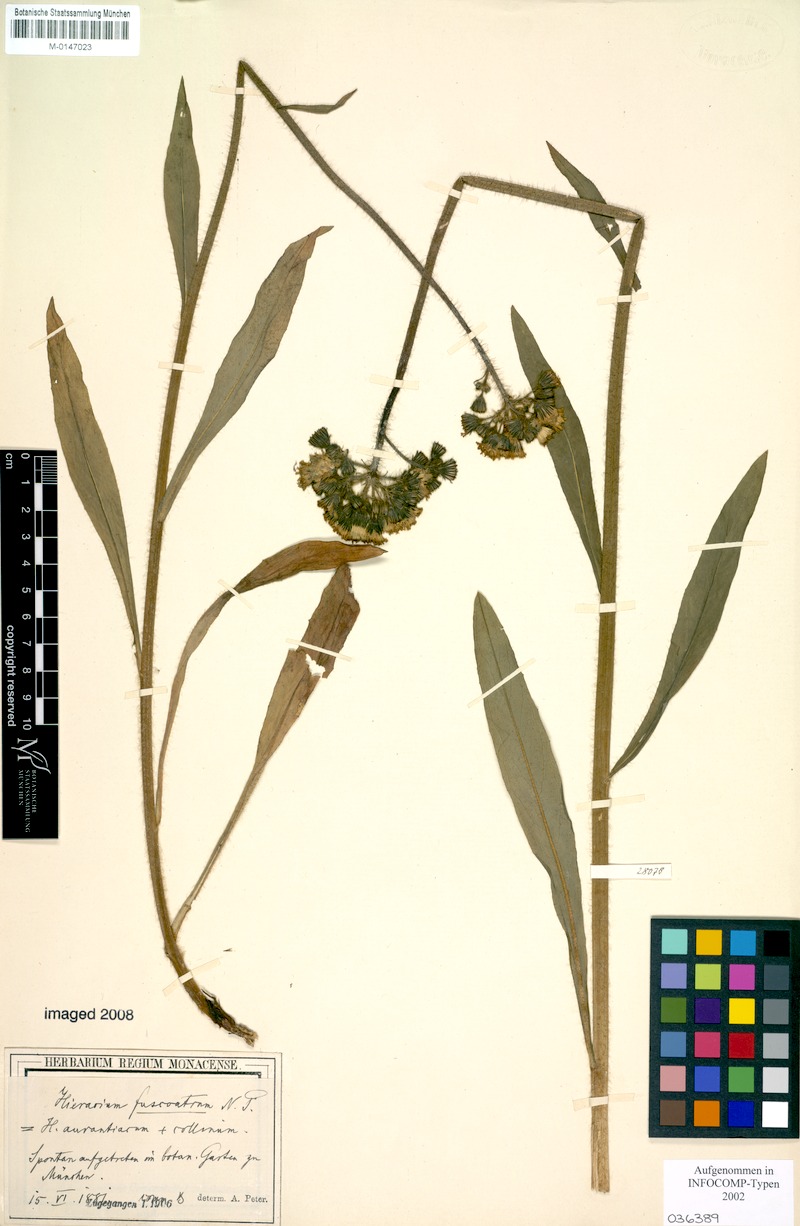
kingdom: Plantae
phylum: Tracheophyta
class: Magnoliopsida
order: Asterales
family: Asteraceae
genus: Pilosella
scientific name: Pilosella fuscoatra
